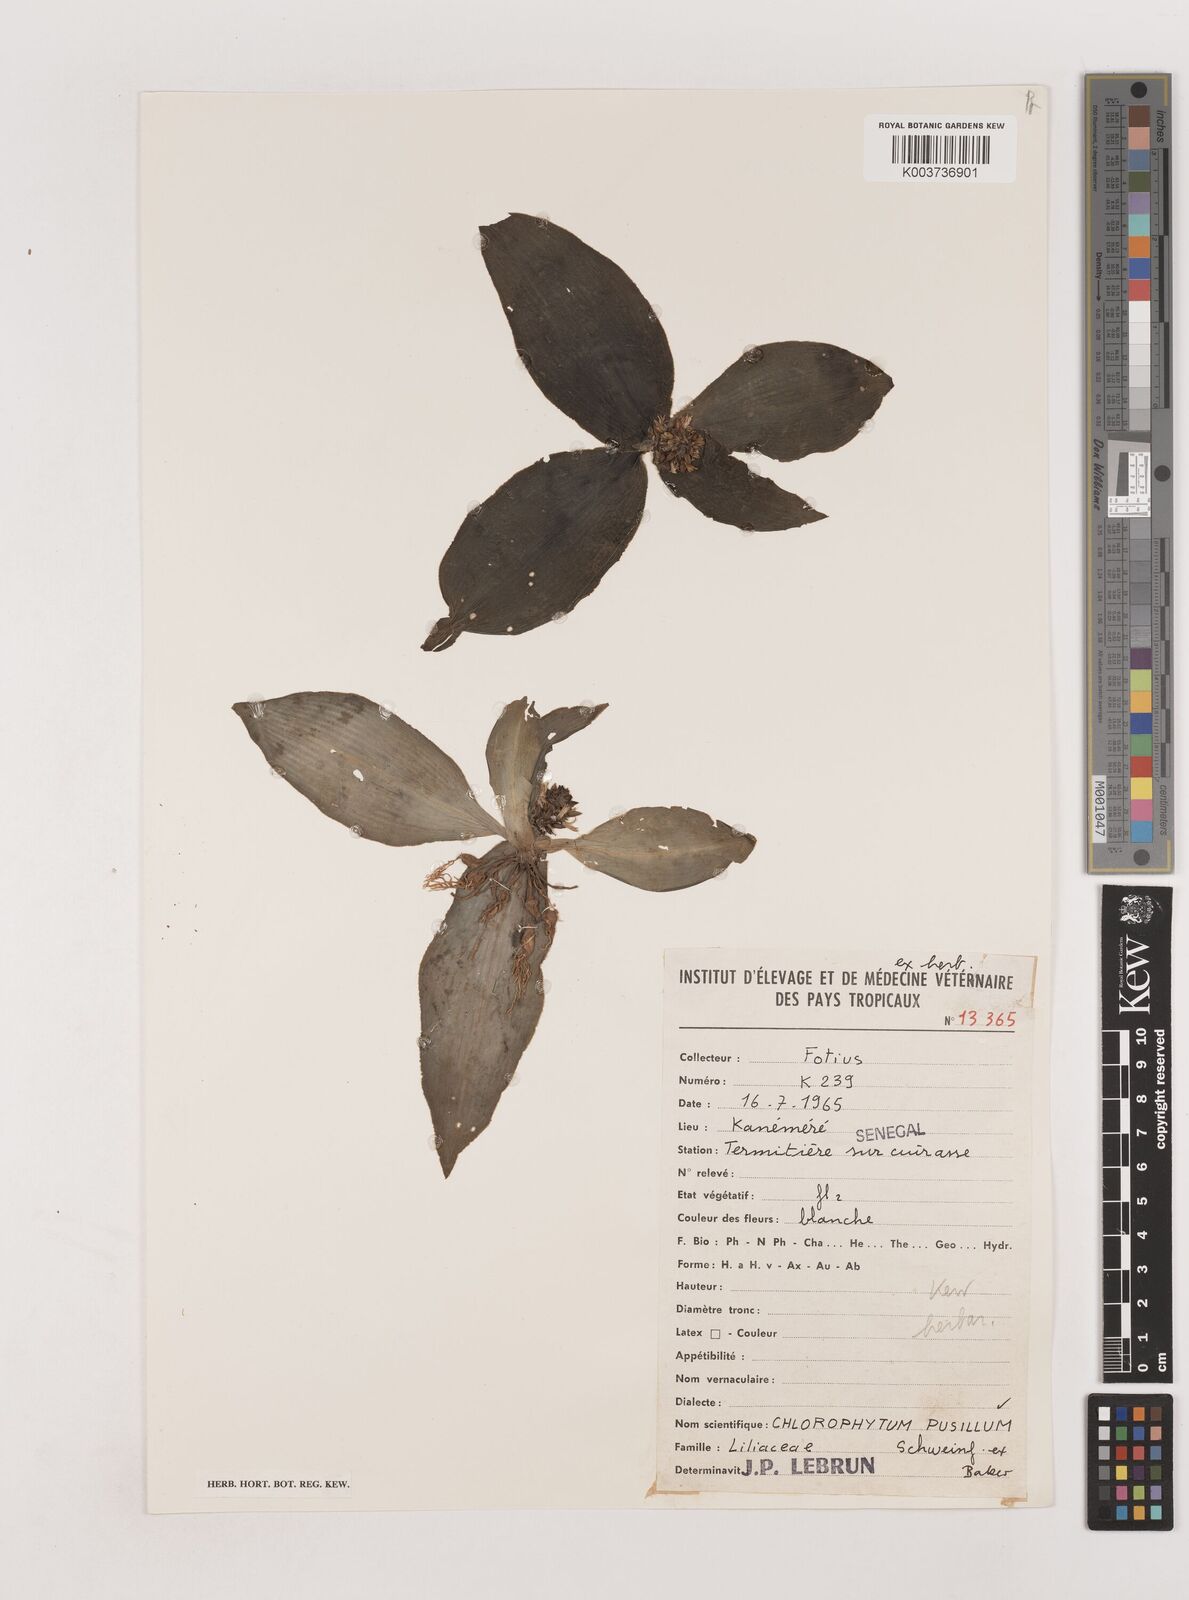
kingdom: Plantae
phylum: Tracheophyta
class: Liliopsida
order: Asparagales
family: Asparagaceae
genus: Chlorophytum
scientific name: Chlorophytum pusillum
